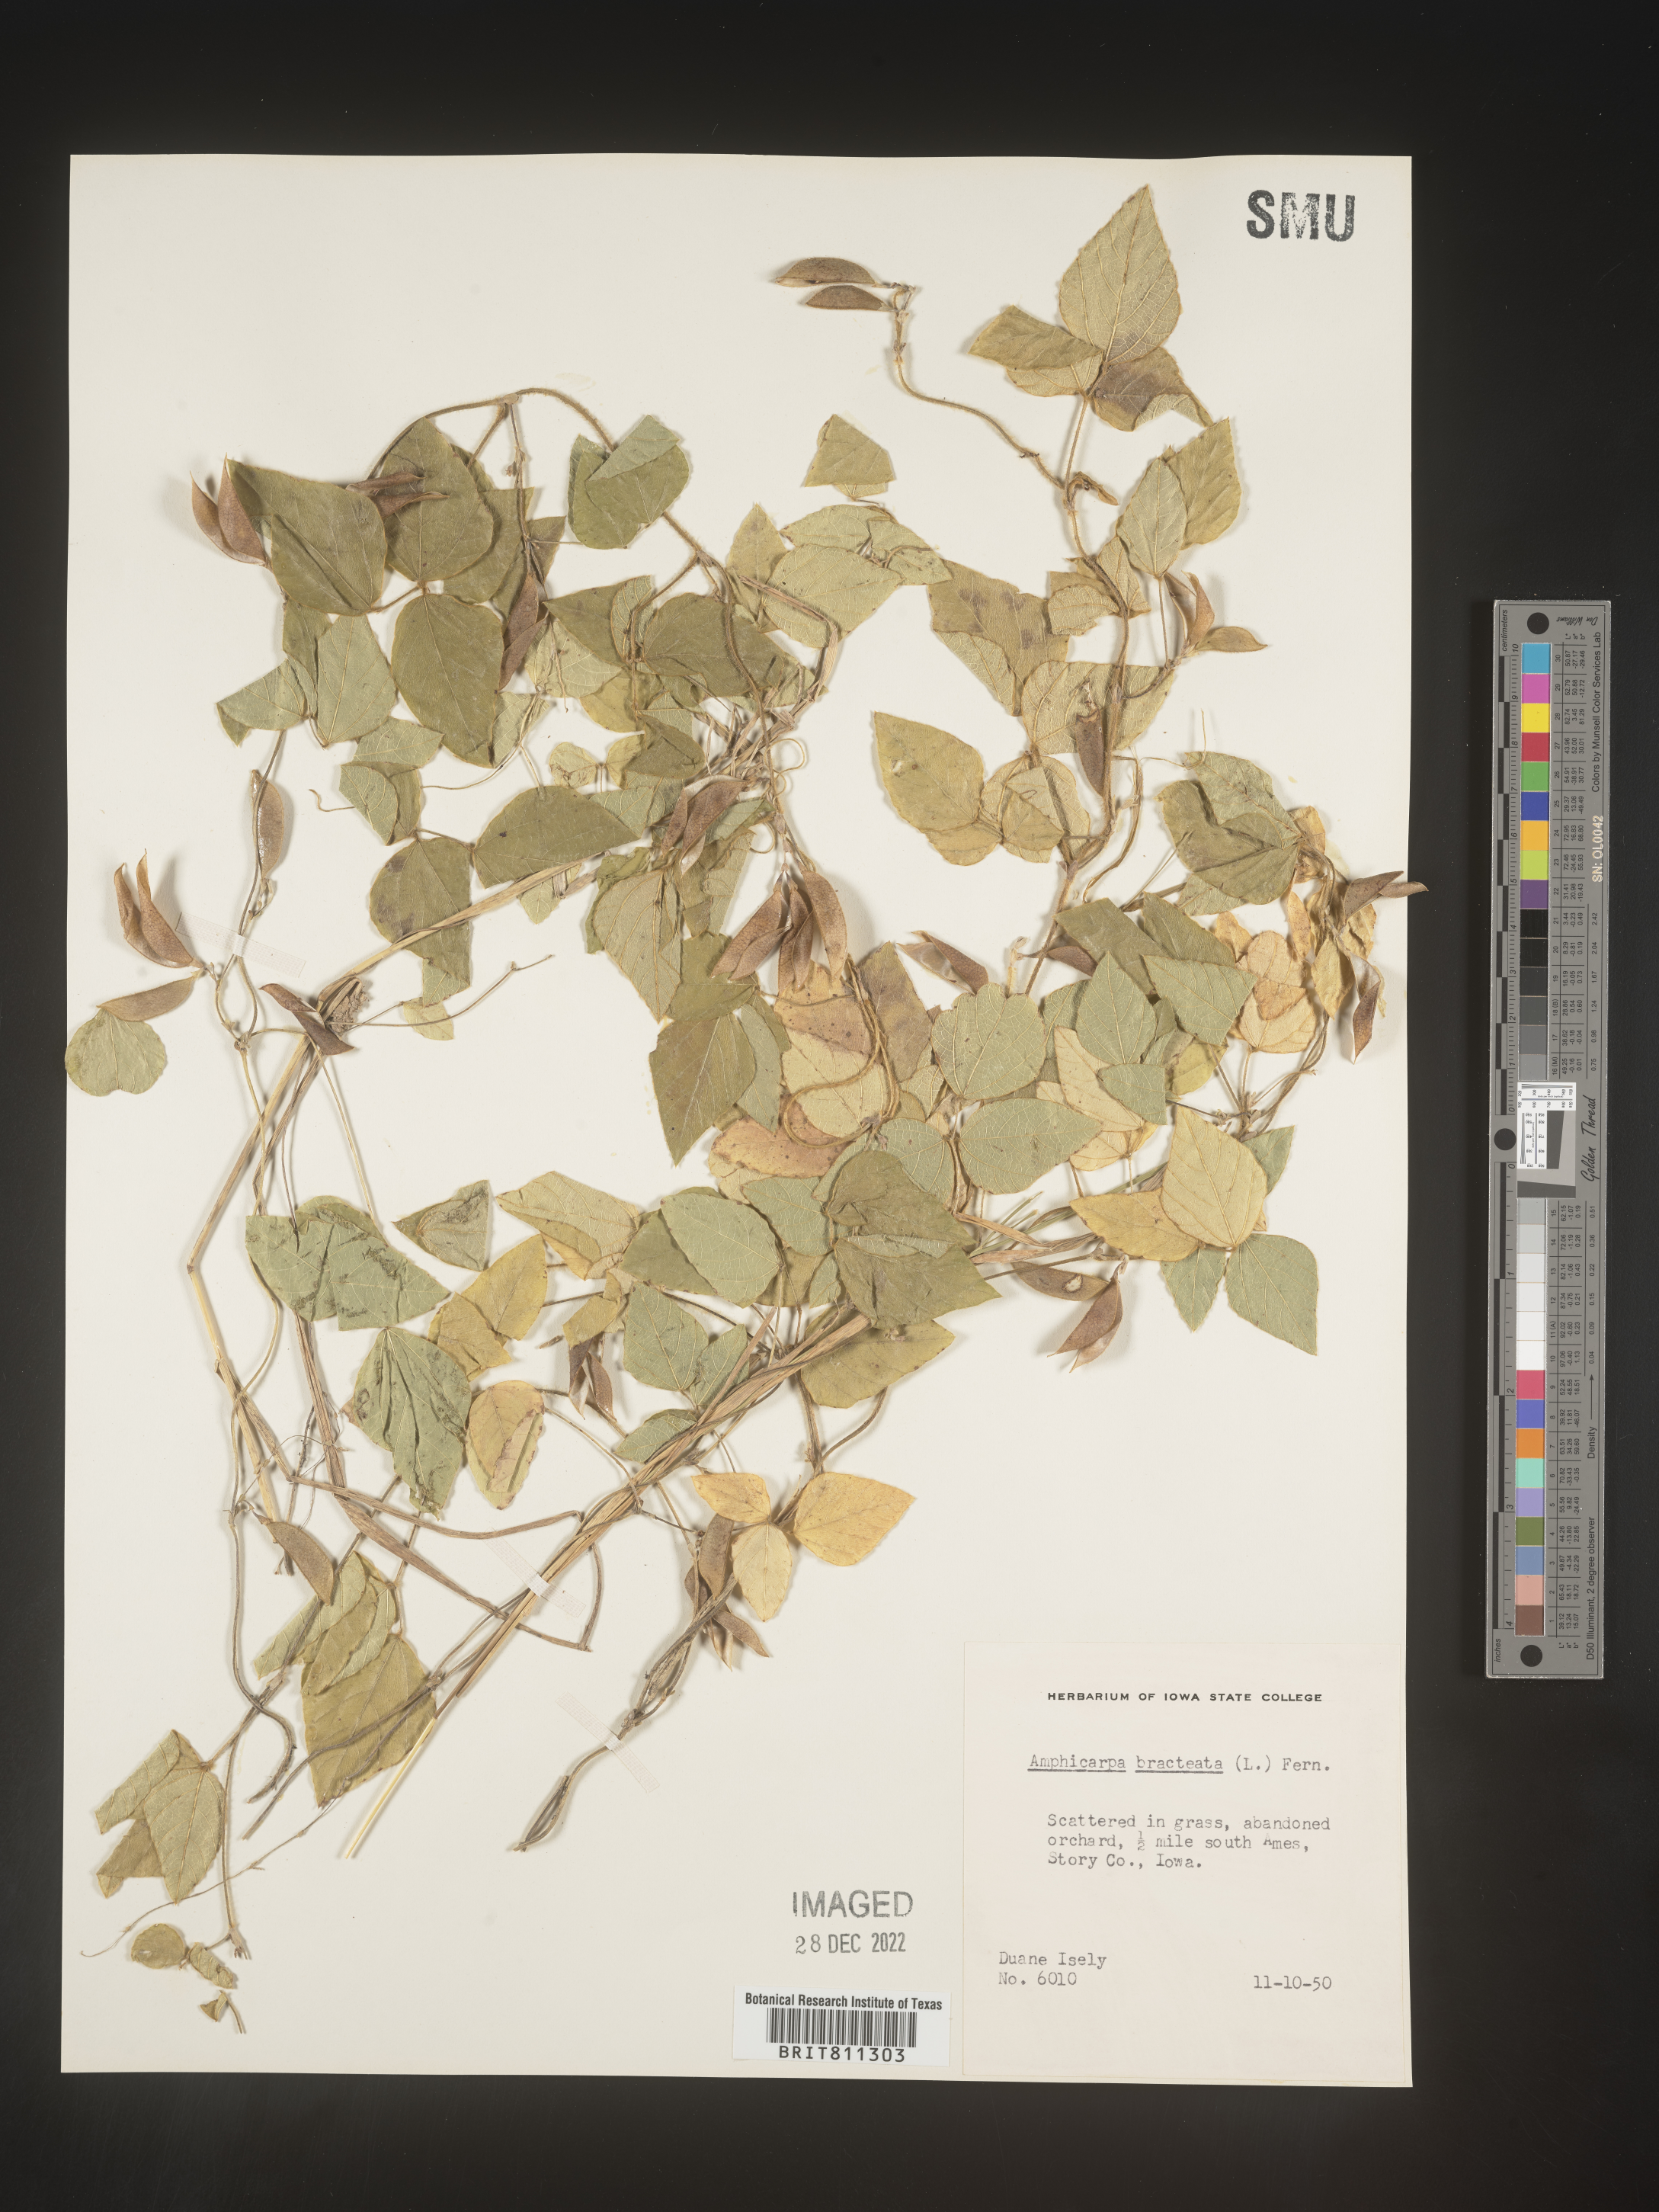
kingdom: Plantae
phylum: Tracheophyta
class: Magnoliopsida
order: Fabales
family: Fabaceae
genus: Amphicarpaea
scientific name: Amphicarpaea bracteata
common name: American hog peanut
